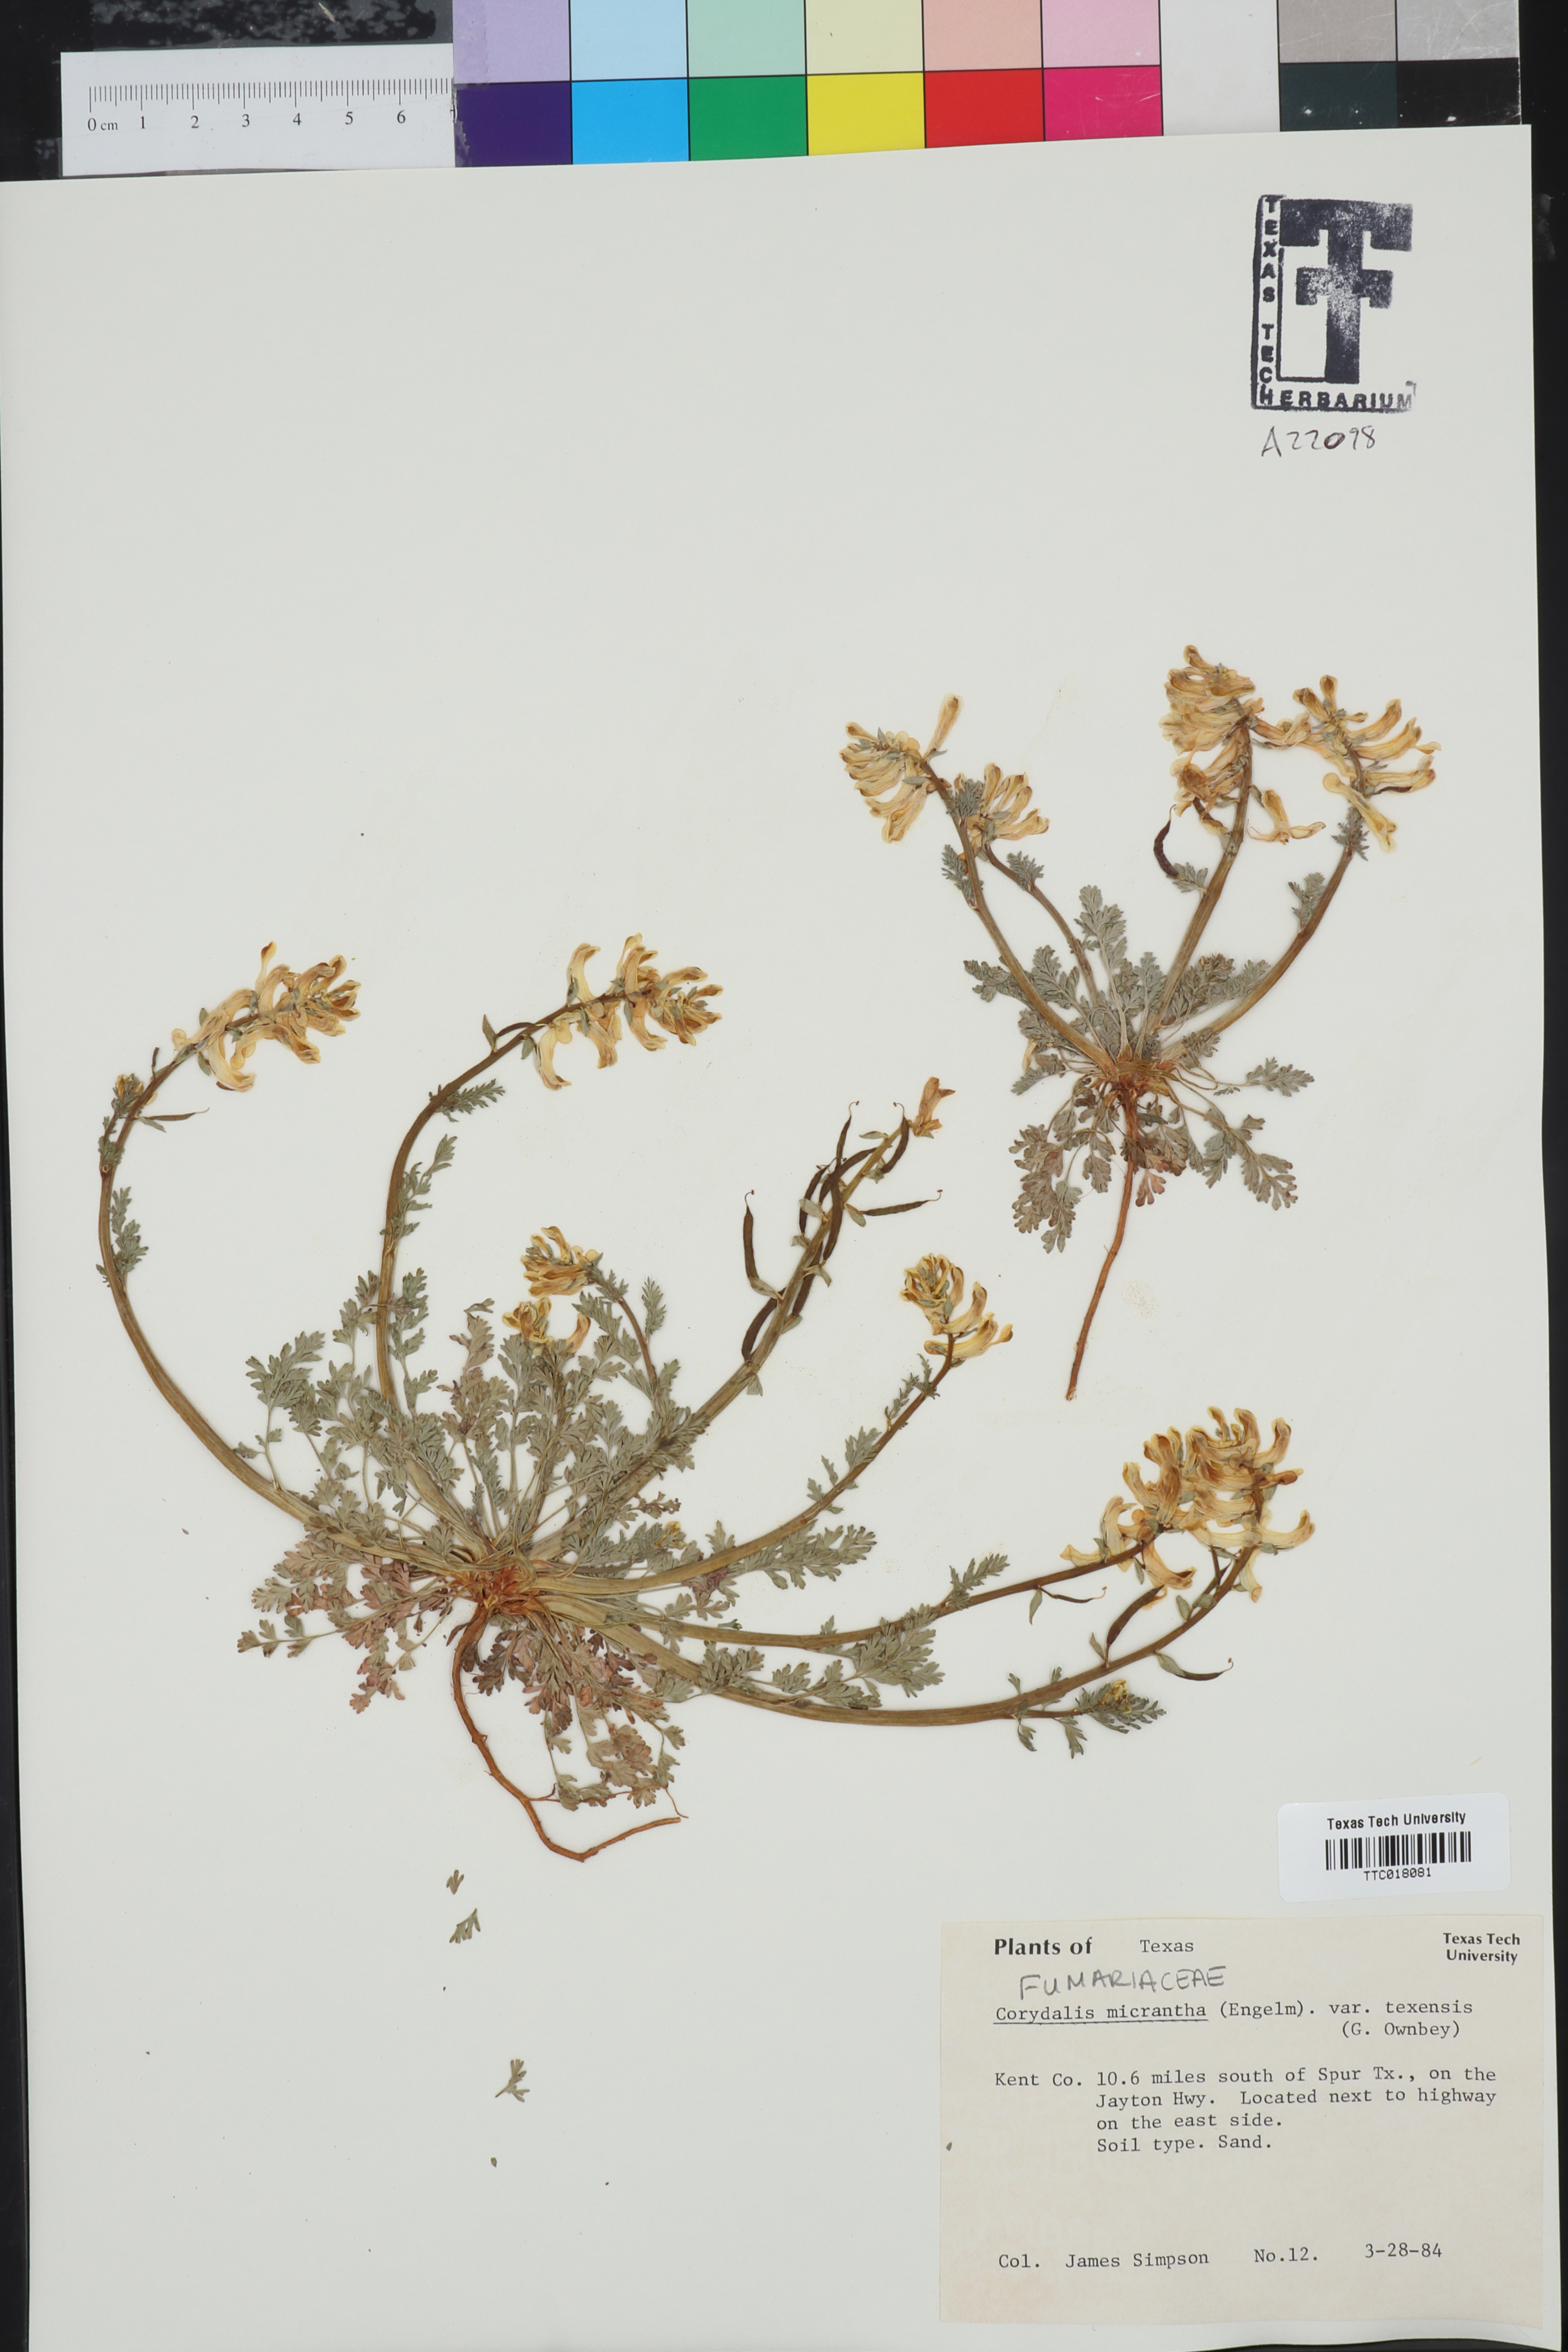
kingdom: Plantae
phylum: Tracheophyta
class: Magnoliopsida
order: Ranunculales
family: Papaveraceae
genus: Corydalis
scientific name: Corydalis micrantha
